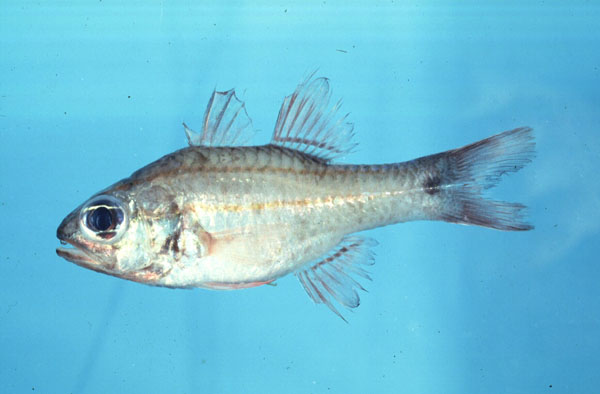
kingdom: Animalia
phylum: Chordata
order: Perciformes
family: Apogonidae
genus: Ostorhinchus
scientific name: Ostorhinchus doederleini
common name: Doederlein's cardinalfish
